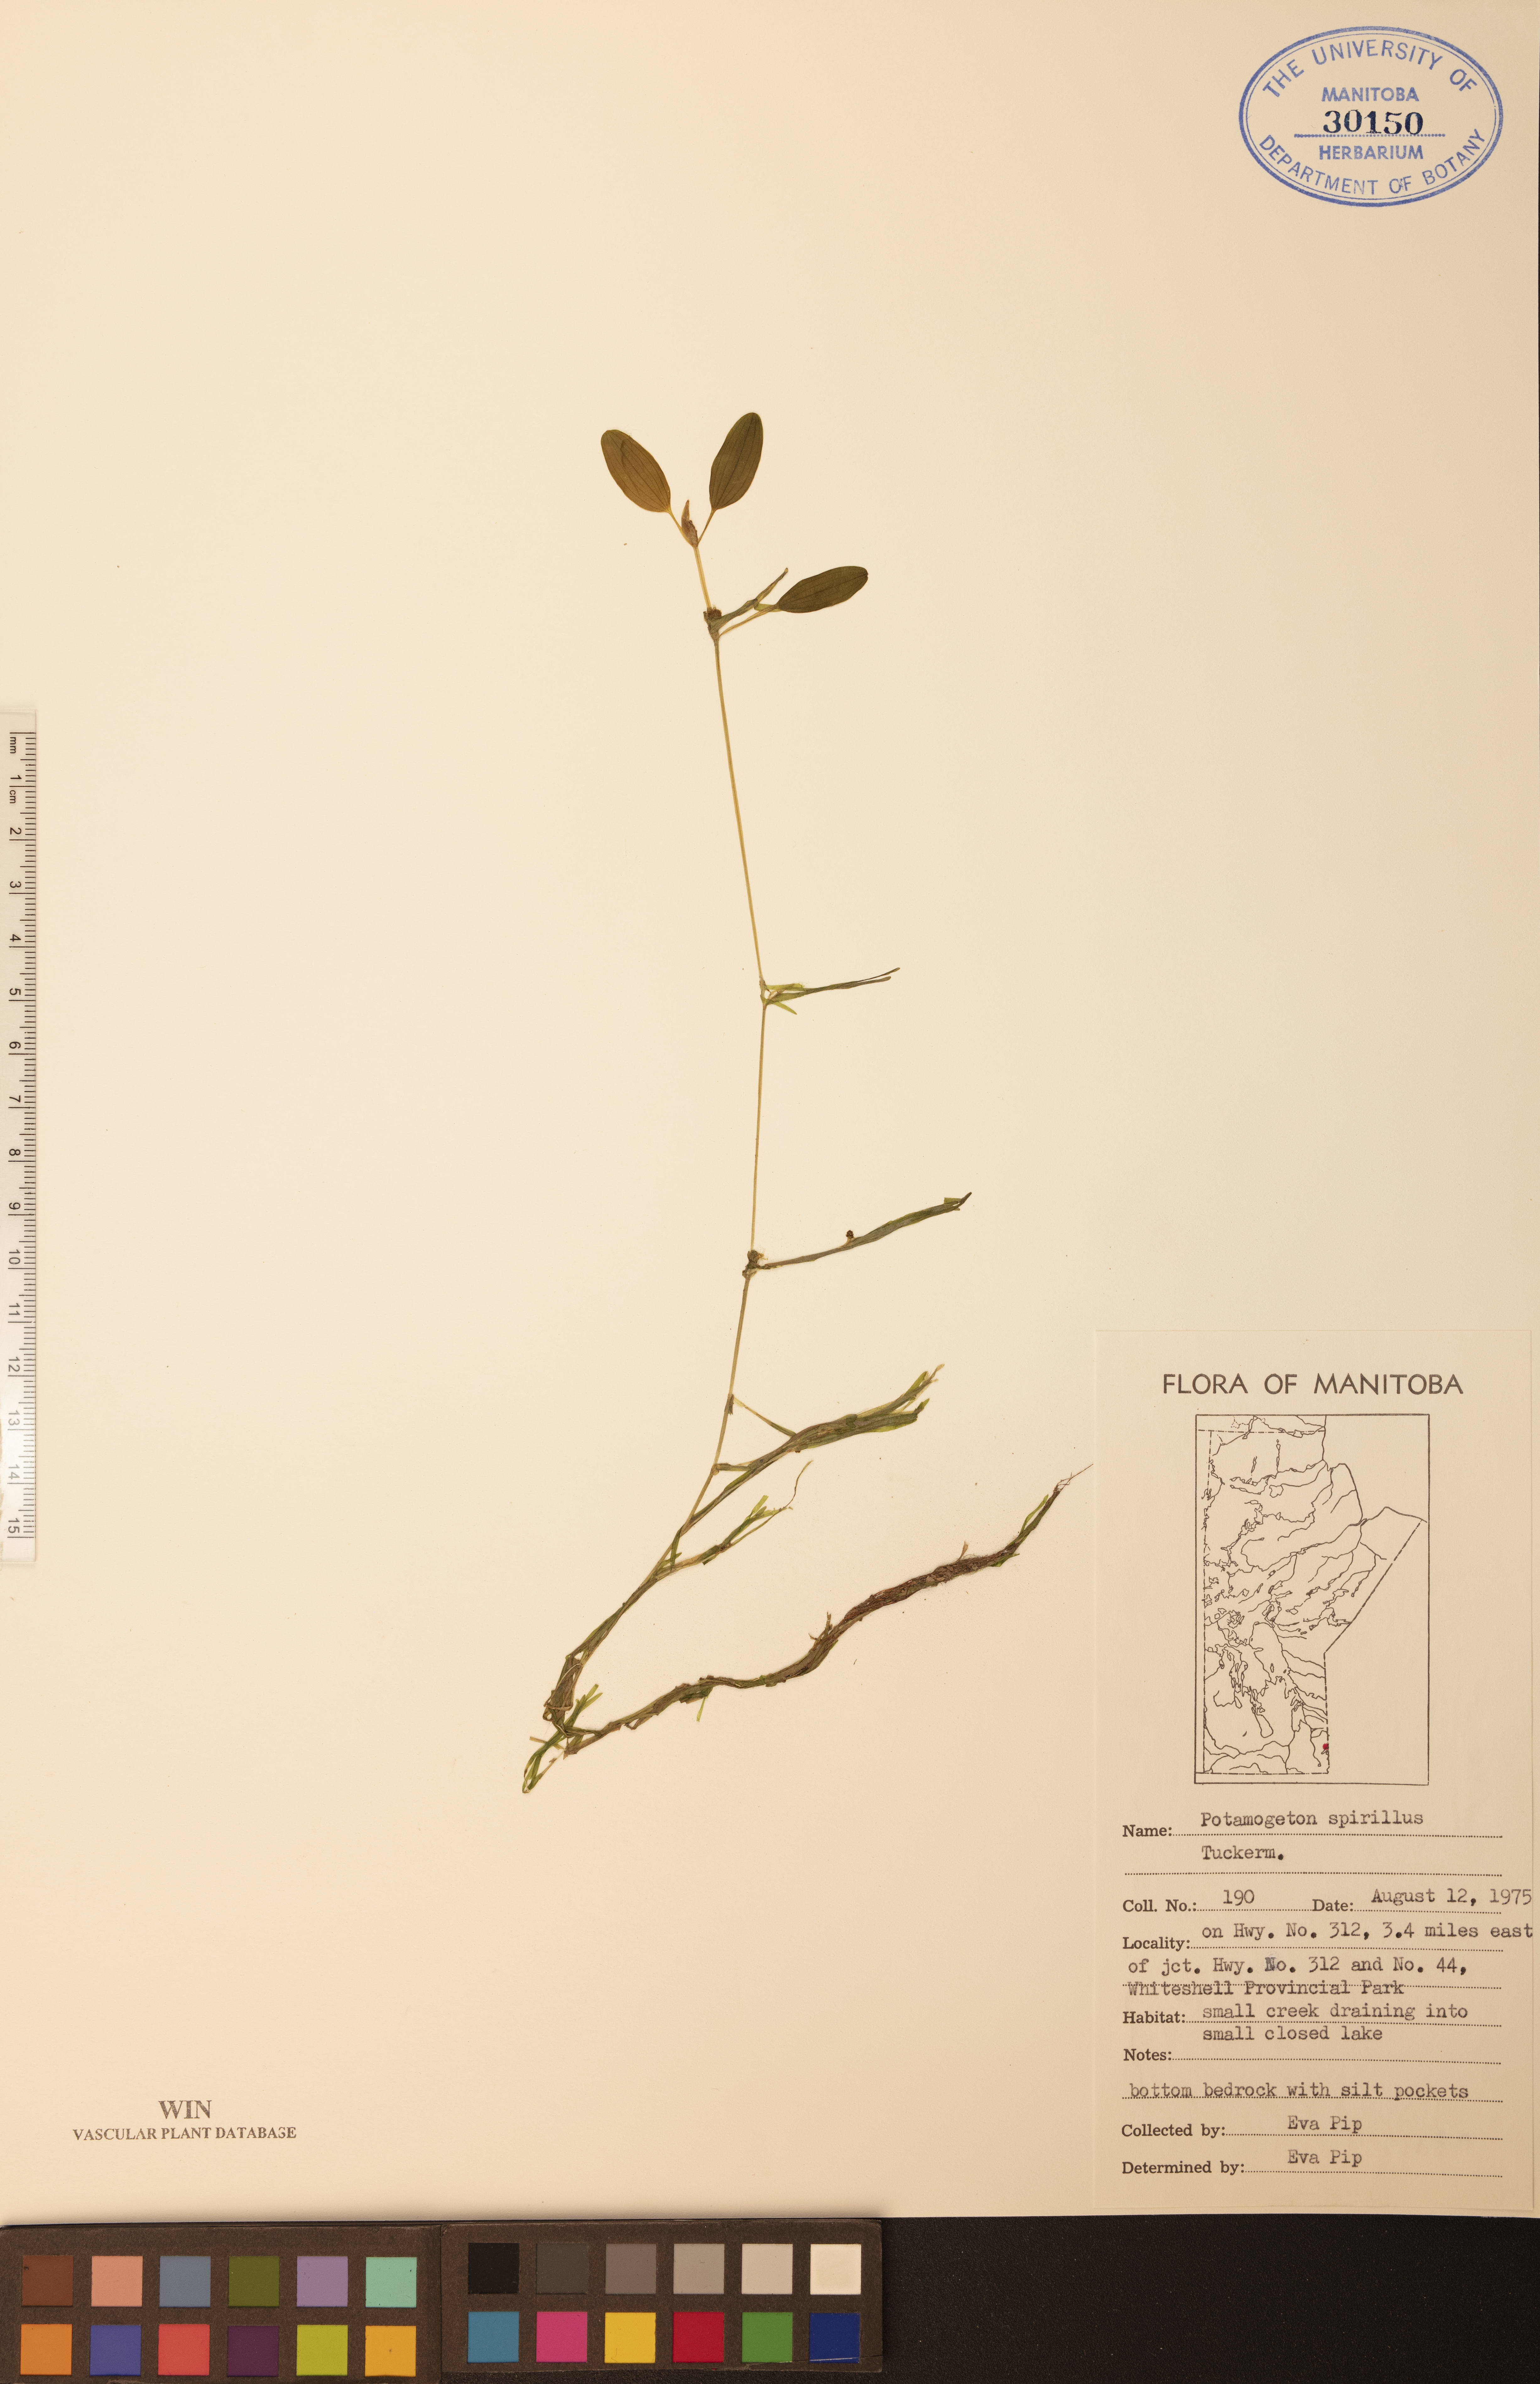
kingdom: Plantae
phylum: Tracheophyta
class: Liliopsida
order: Alismatales
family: Potamogetonaceae
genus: Potamogeton
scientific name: Potamogeton spirillus
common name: Northern snail-seed pondweed
